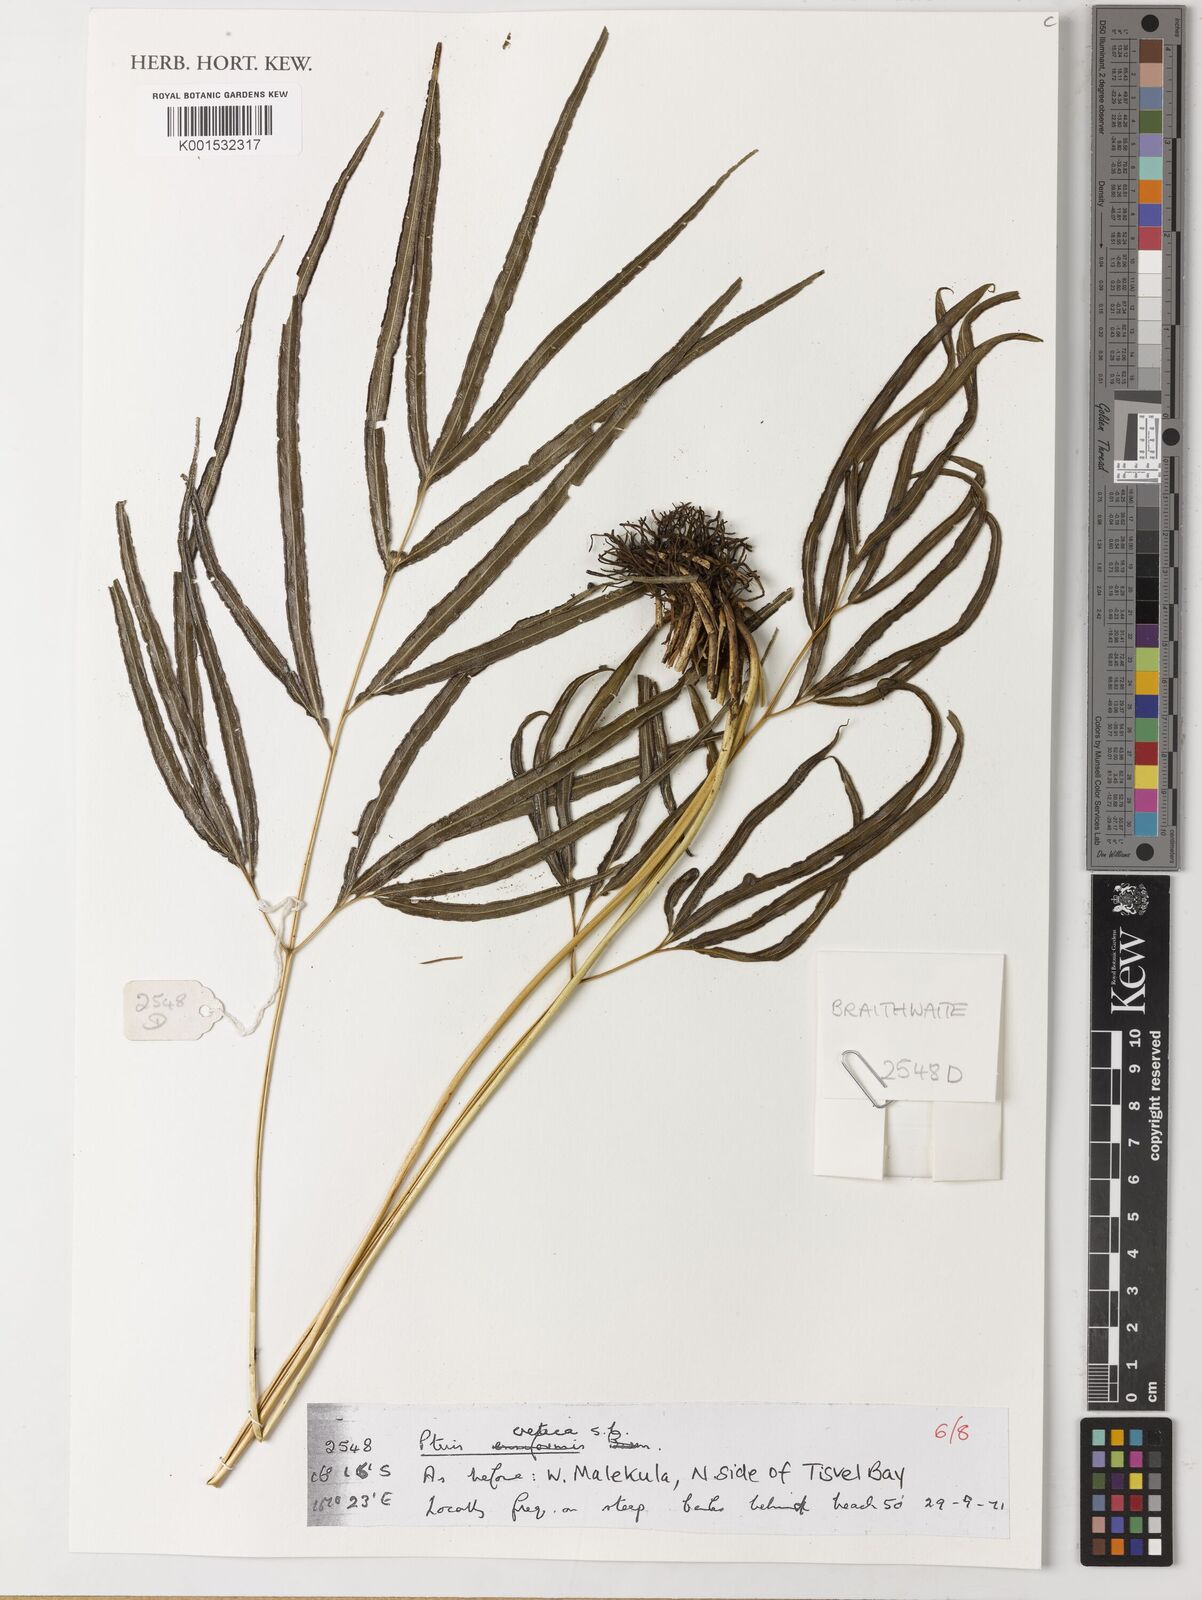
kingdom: Plantae
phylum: Tracheophyta
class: Polypodiopsida
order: Polypodiales
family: Pteridaceae
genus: Pteris
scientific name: Pteris cretica
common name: Ribbon fern
